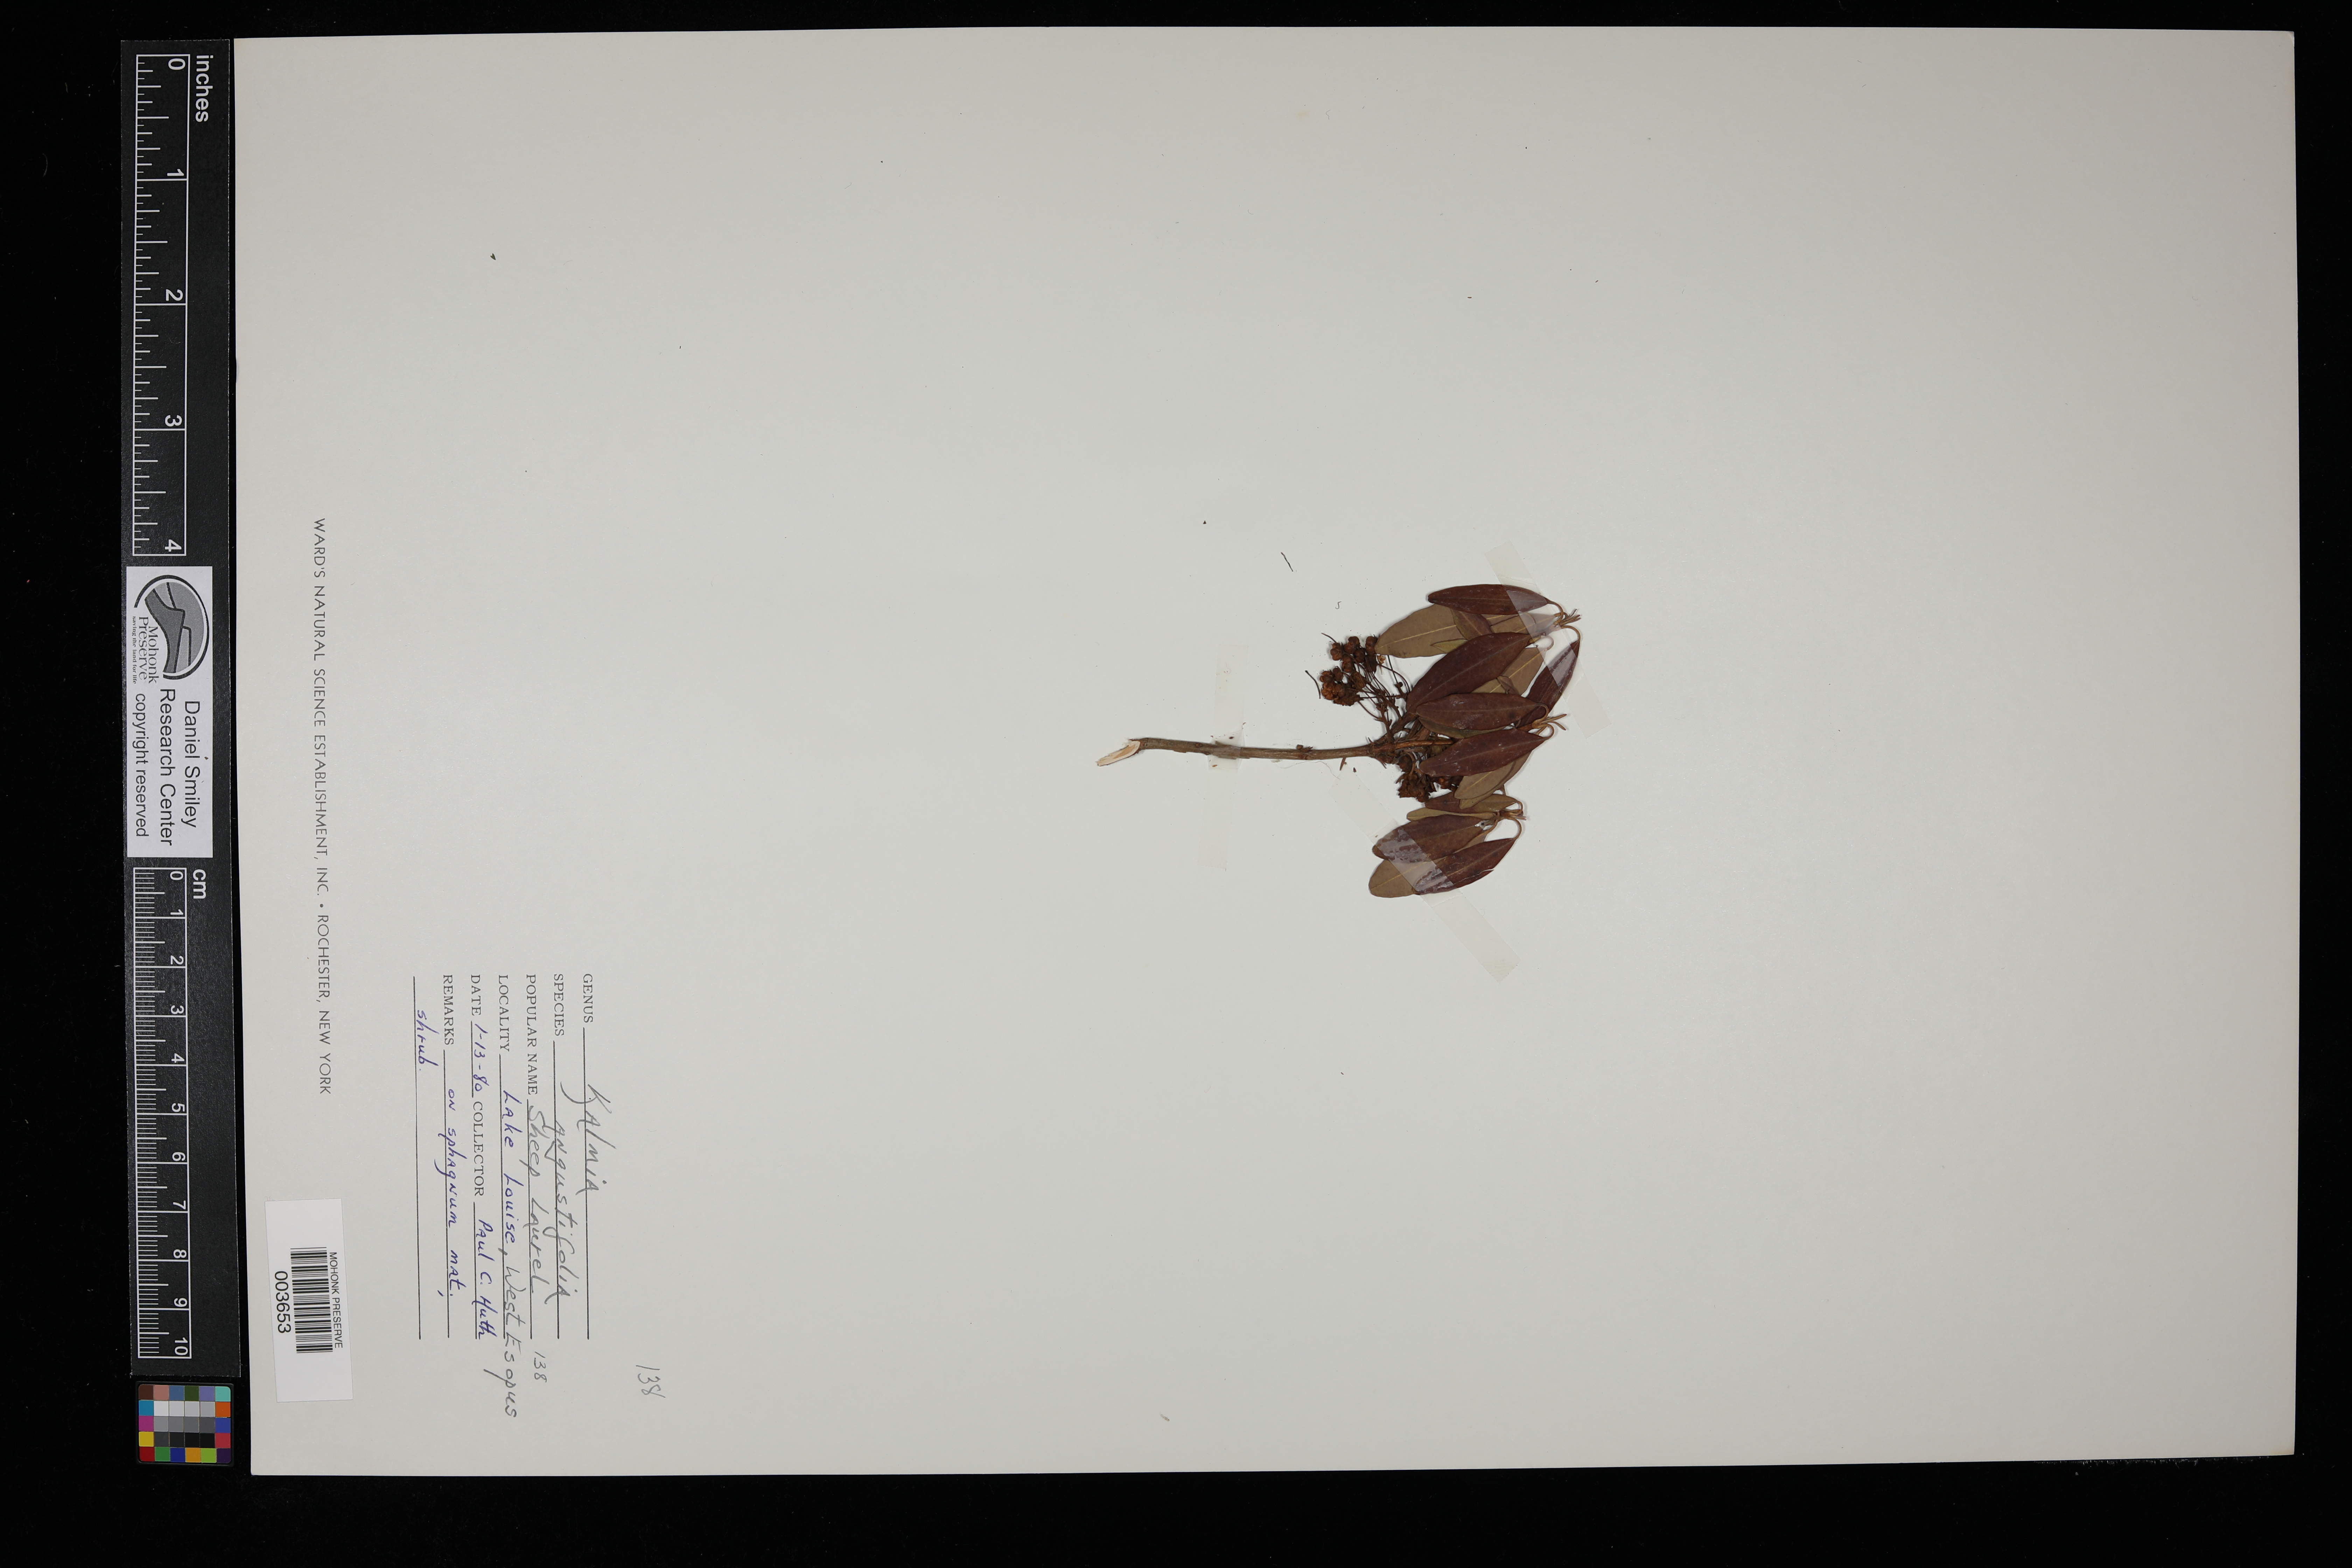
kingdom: Plantae
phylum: Tracheophyta
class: Magnoliopsida
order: Ericales
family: Ericaceae
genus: Kalmia
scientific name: Kalmia angustifolia
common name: Sheep-laurel
